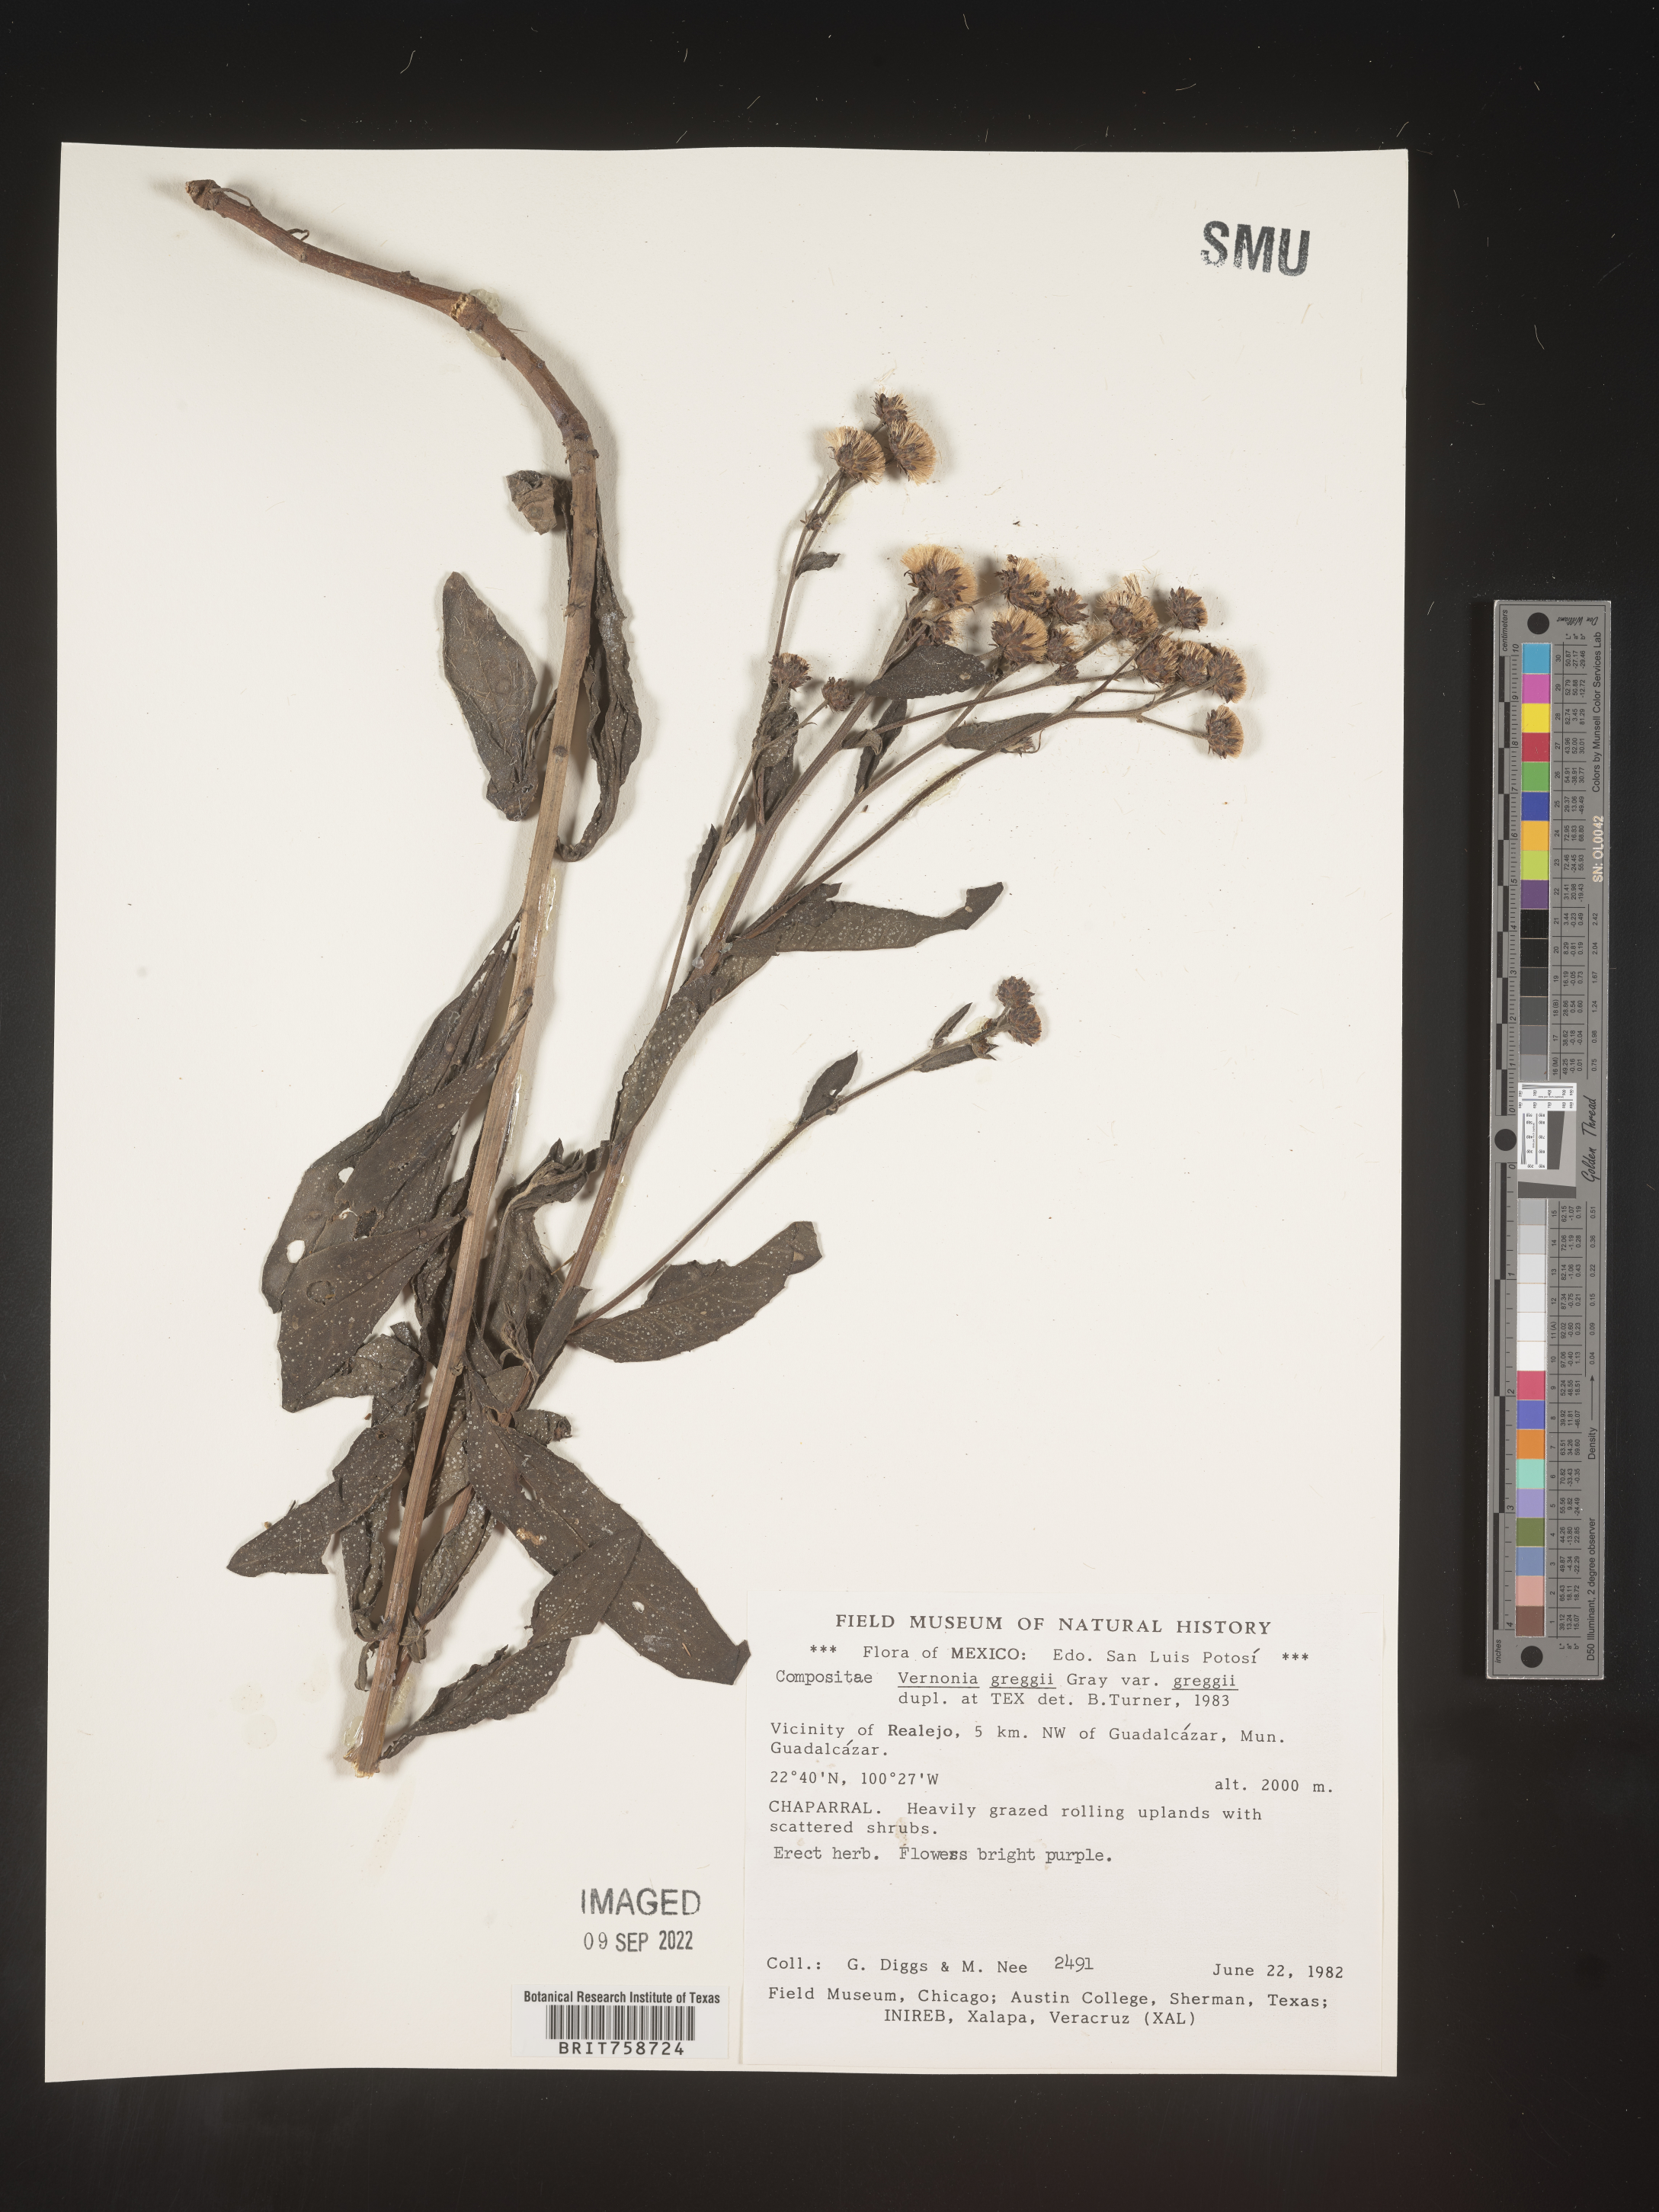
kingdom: Plantae
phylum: Tracheophyta
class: Magnoliopsida
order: Asterales
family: Asteraceae
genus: Vernonia
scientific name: Vernonia
